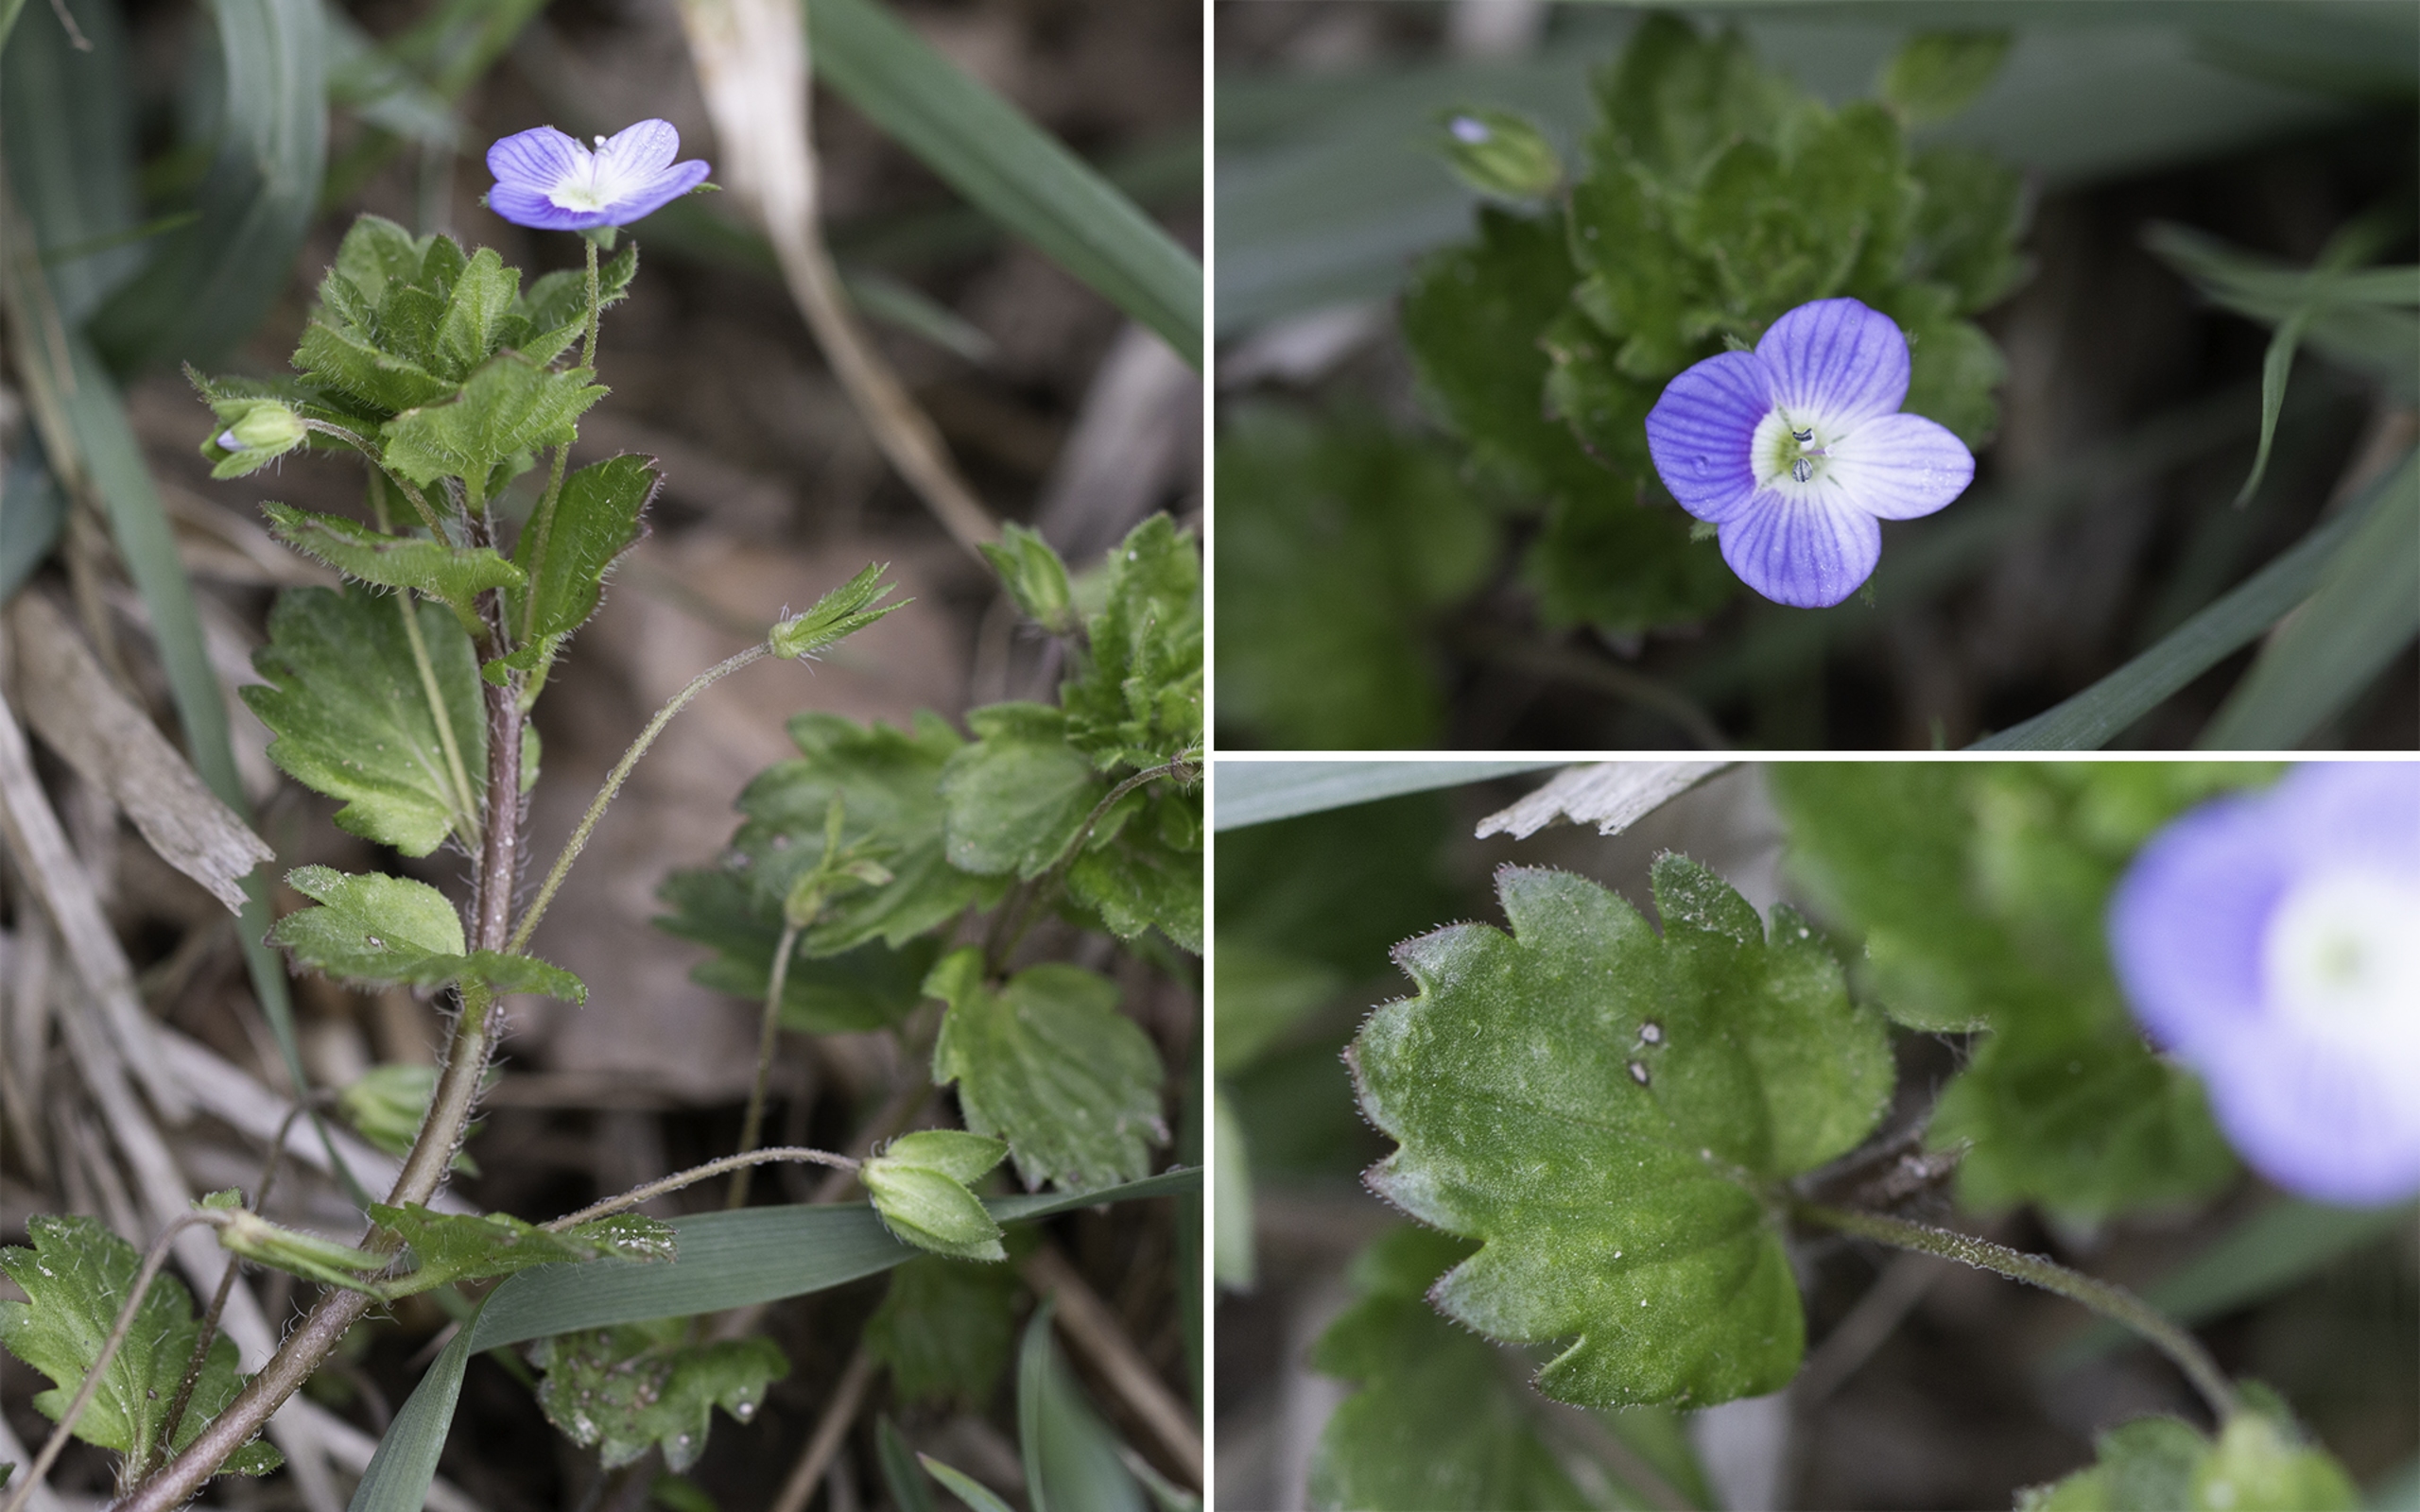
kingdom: Plantae
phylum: Tracheophyta
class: Magnoliopsida
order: Lamiales
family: Plantaginaceae
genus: Veronica
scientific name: Veronica persica
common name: Storkronet ærenpris
